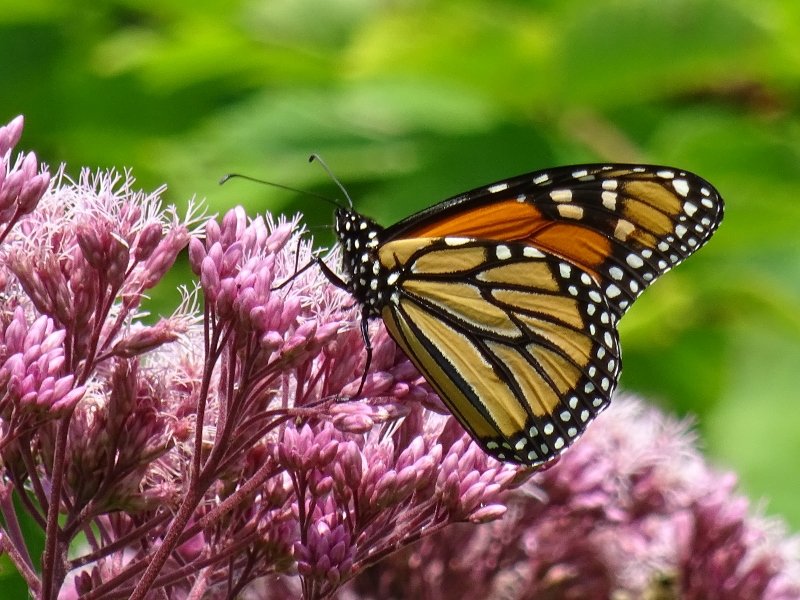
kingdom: Animalia
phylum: Arthropoda
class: Insecta
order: Lepidoptera
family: Nymphalidae
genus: Danaus
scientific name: Danaus plexippus
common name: Monarch
